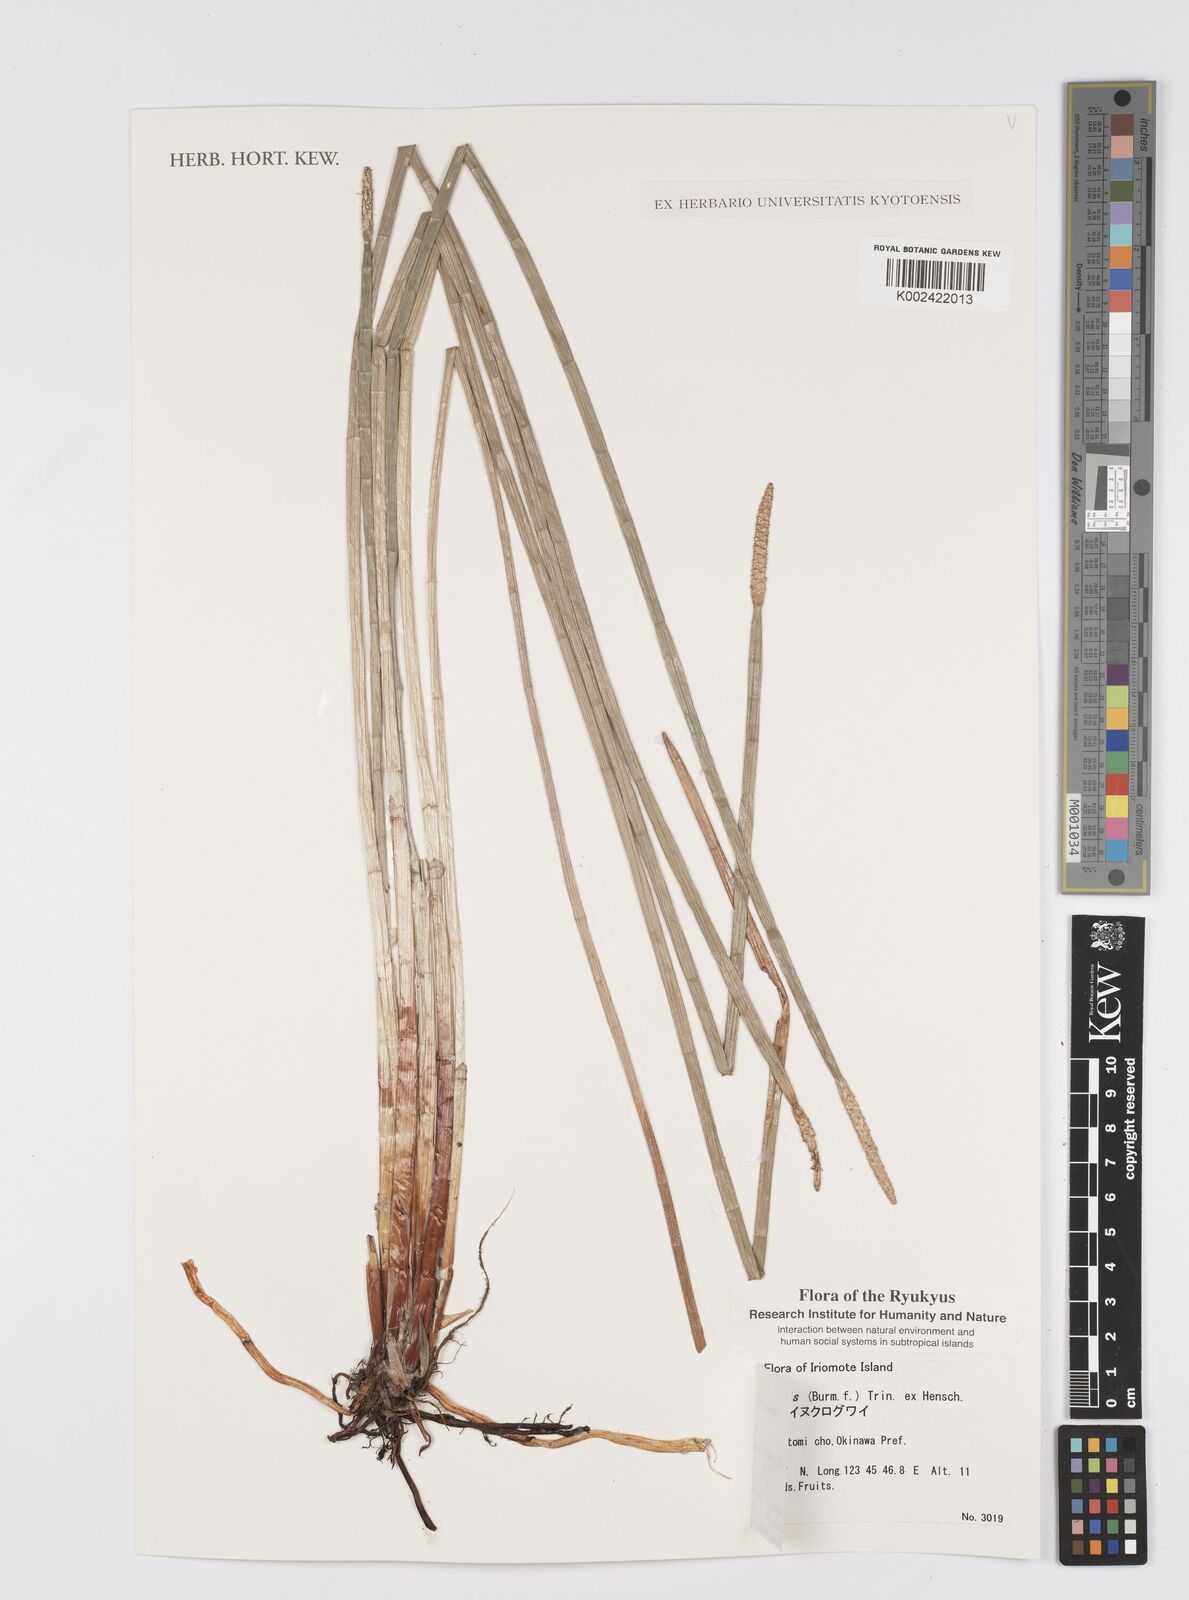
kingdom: Plantae
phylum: Tracheophyta
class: Liliopsida
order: Poales
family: Cyperaceae
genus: Eleocharis
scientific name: Eleocharis dulcis
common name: Chinese water chestnut
